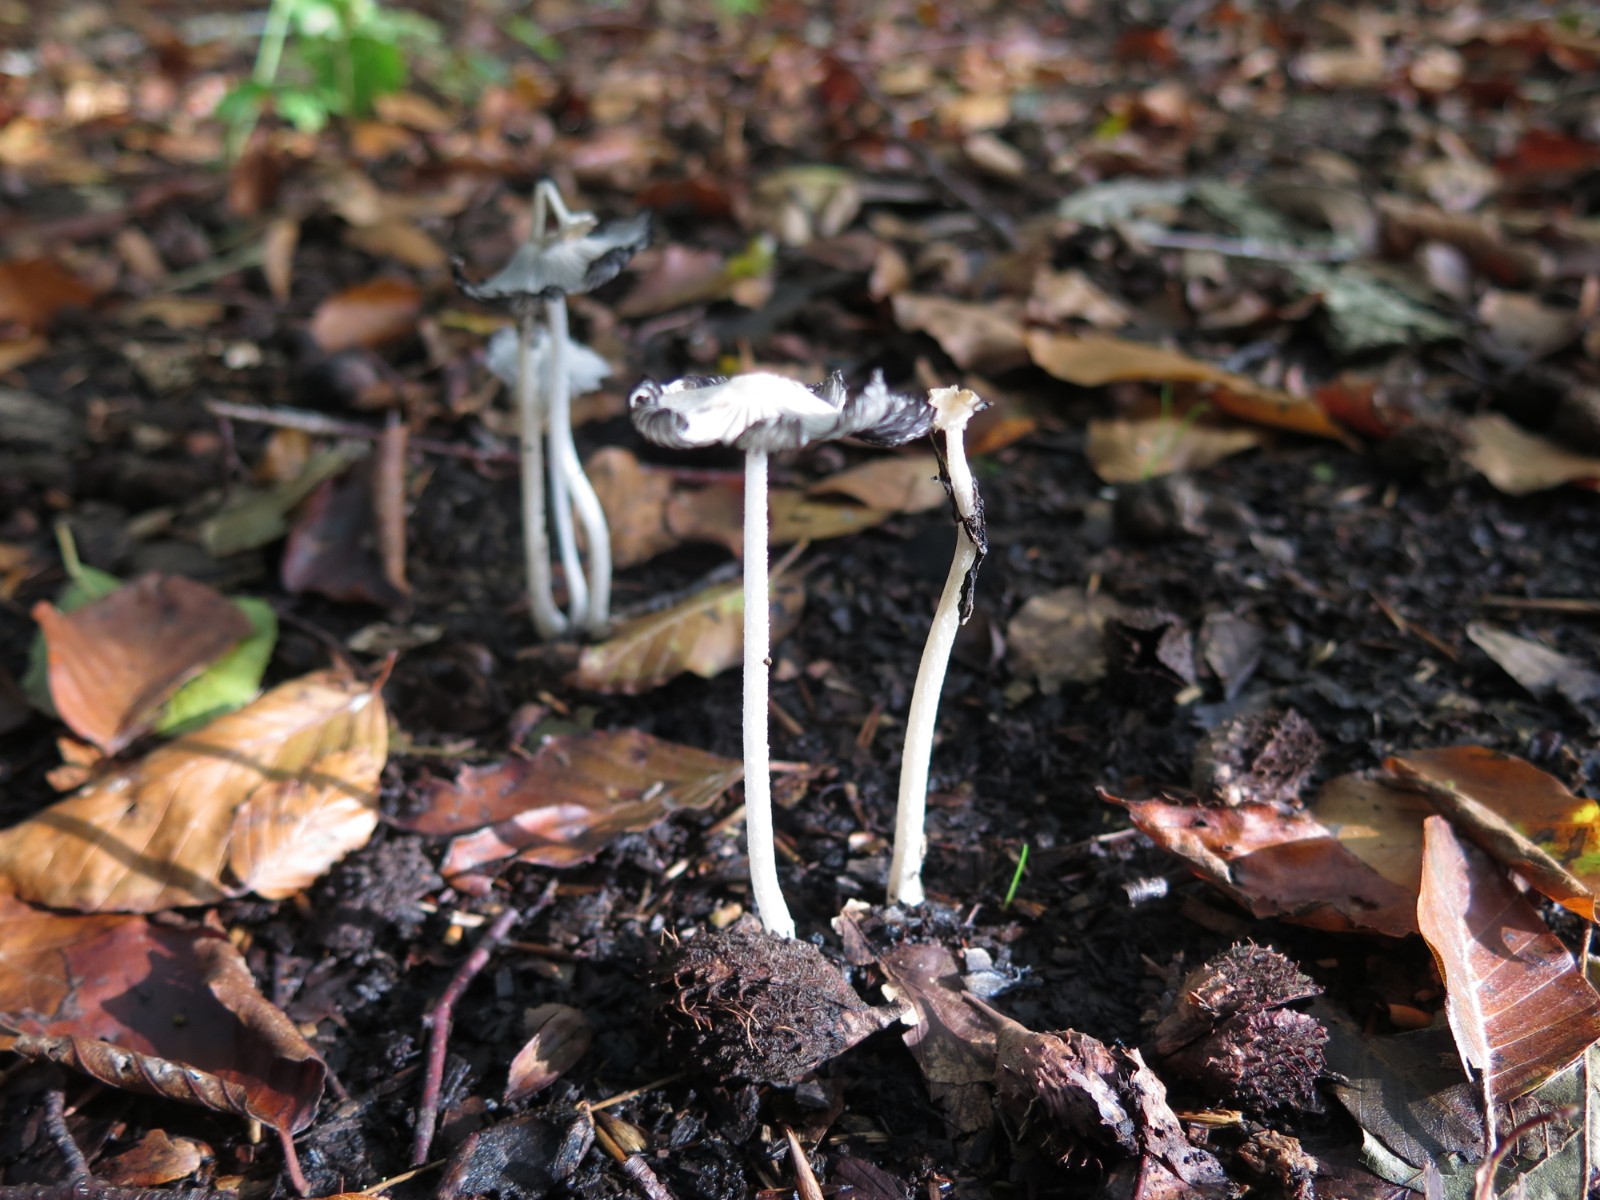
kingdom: Fungi
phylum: Basidiomycota
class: Agaricomycetes
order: Agaricales
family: Psathyrellaceae
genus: Coprinopsis
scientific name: Coprinopsis lagopus
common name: dunstokket blækhat
